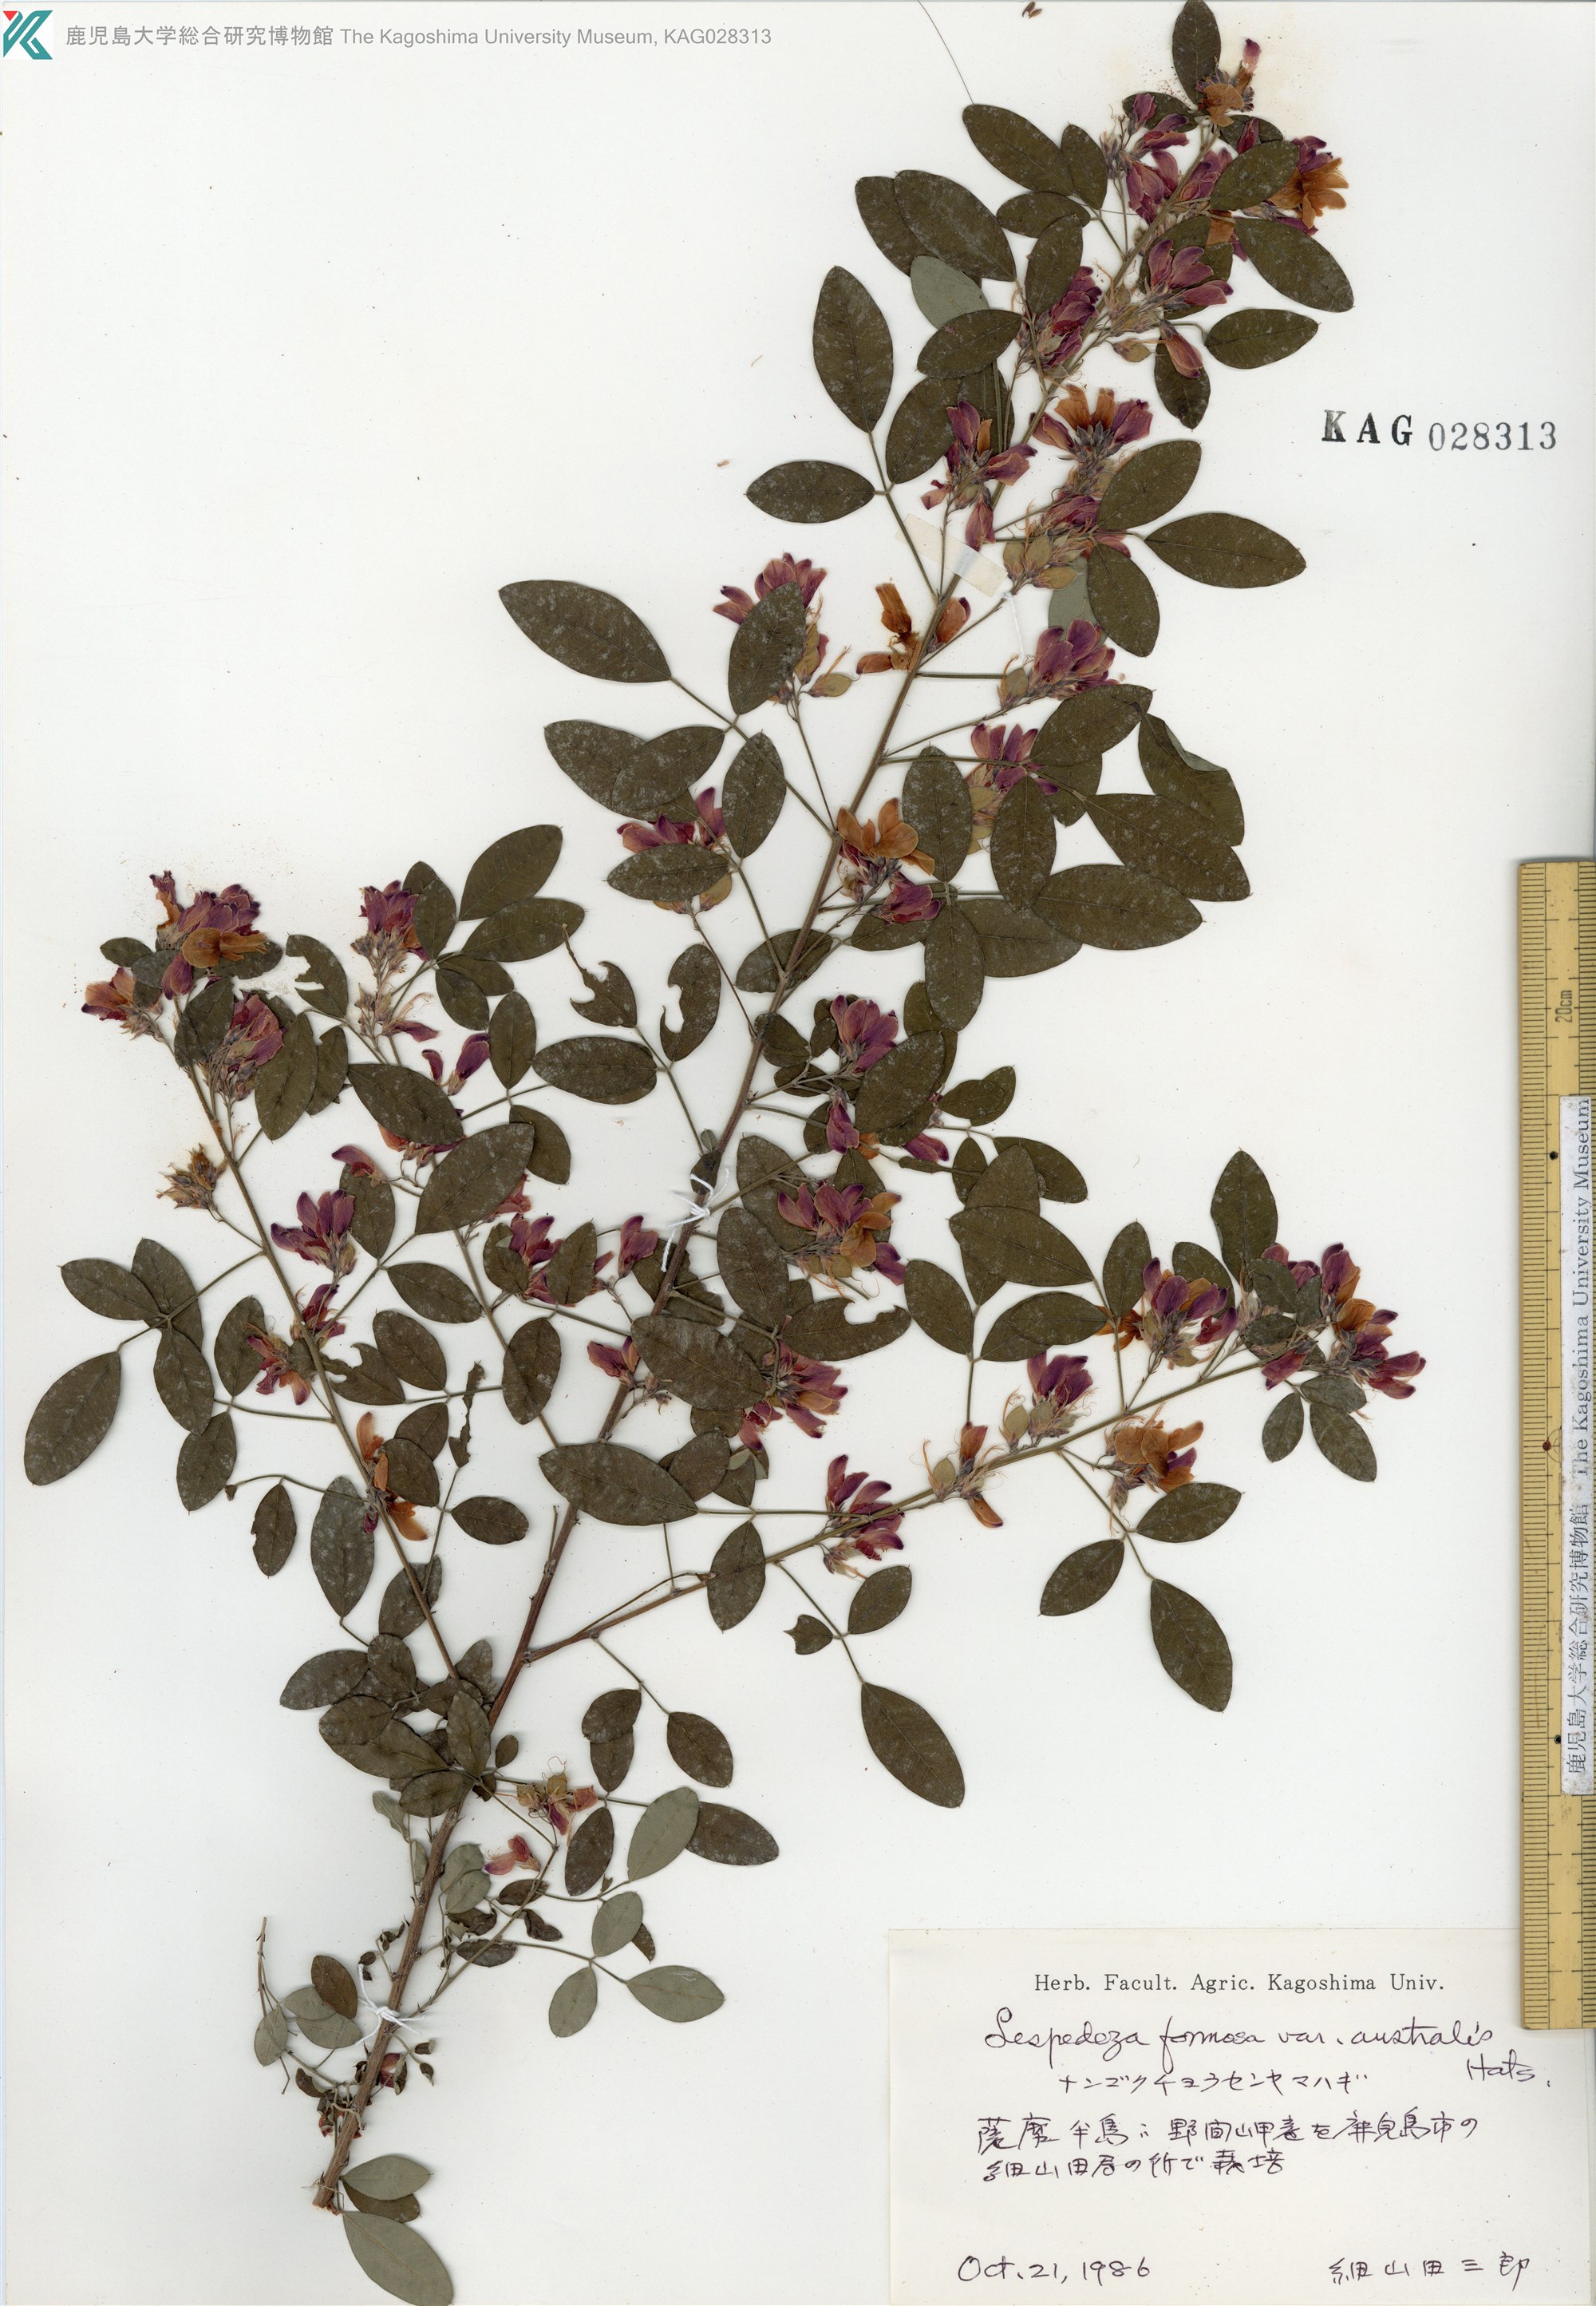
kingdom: Plantae
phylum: Tracheophyta
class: Magnoliopsida
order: Fabales
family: Fabaceae
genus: Lespedeza
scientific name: Lespedeza thunbergii
